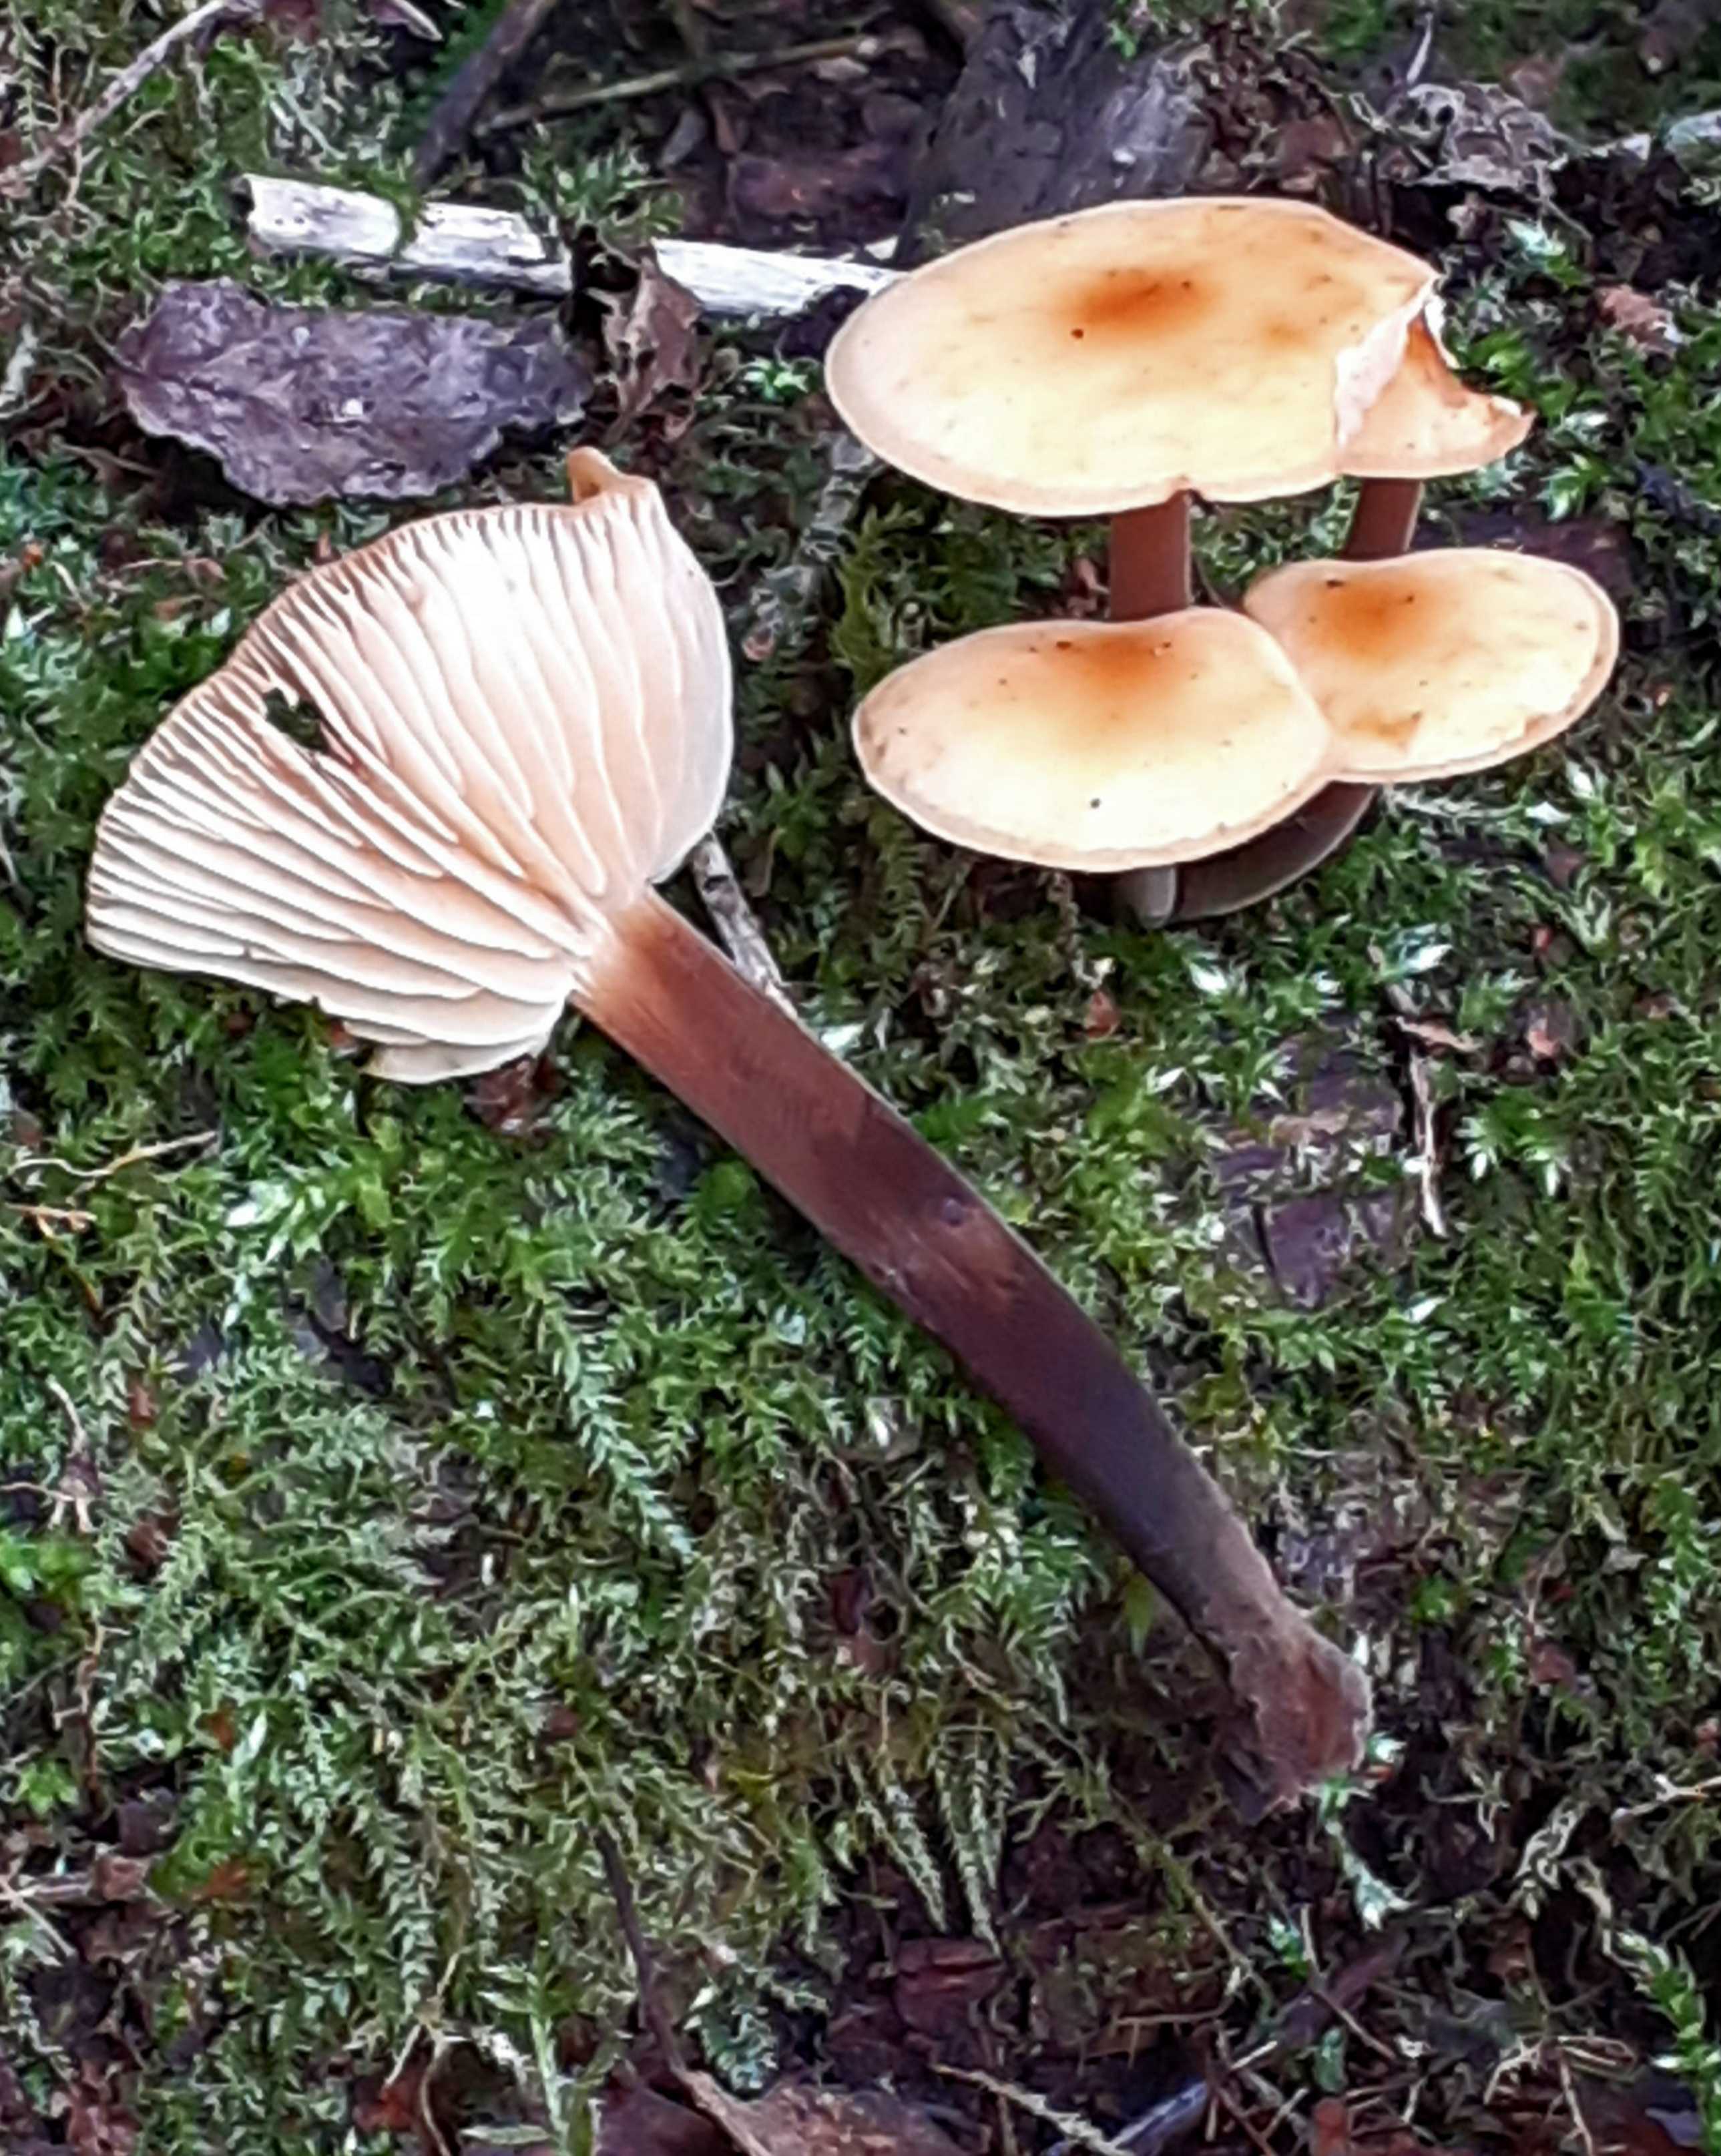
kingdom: Fungi
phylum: Basidiomycota
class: Agaricomycetes
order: Agaricales
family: Physalacriaceae
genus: Flammulina
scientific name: Flammulina elastica
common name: pile-fløjlsfod
